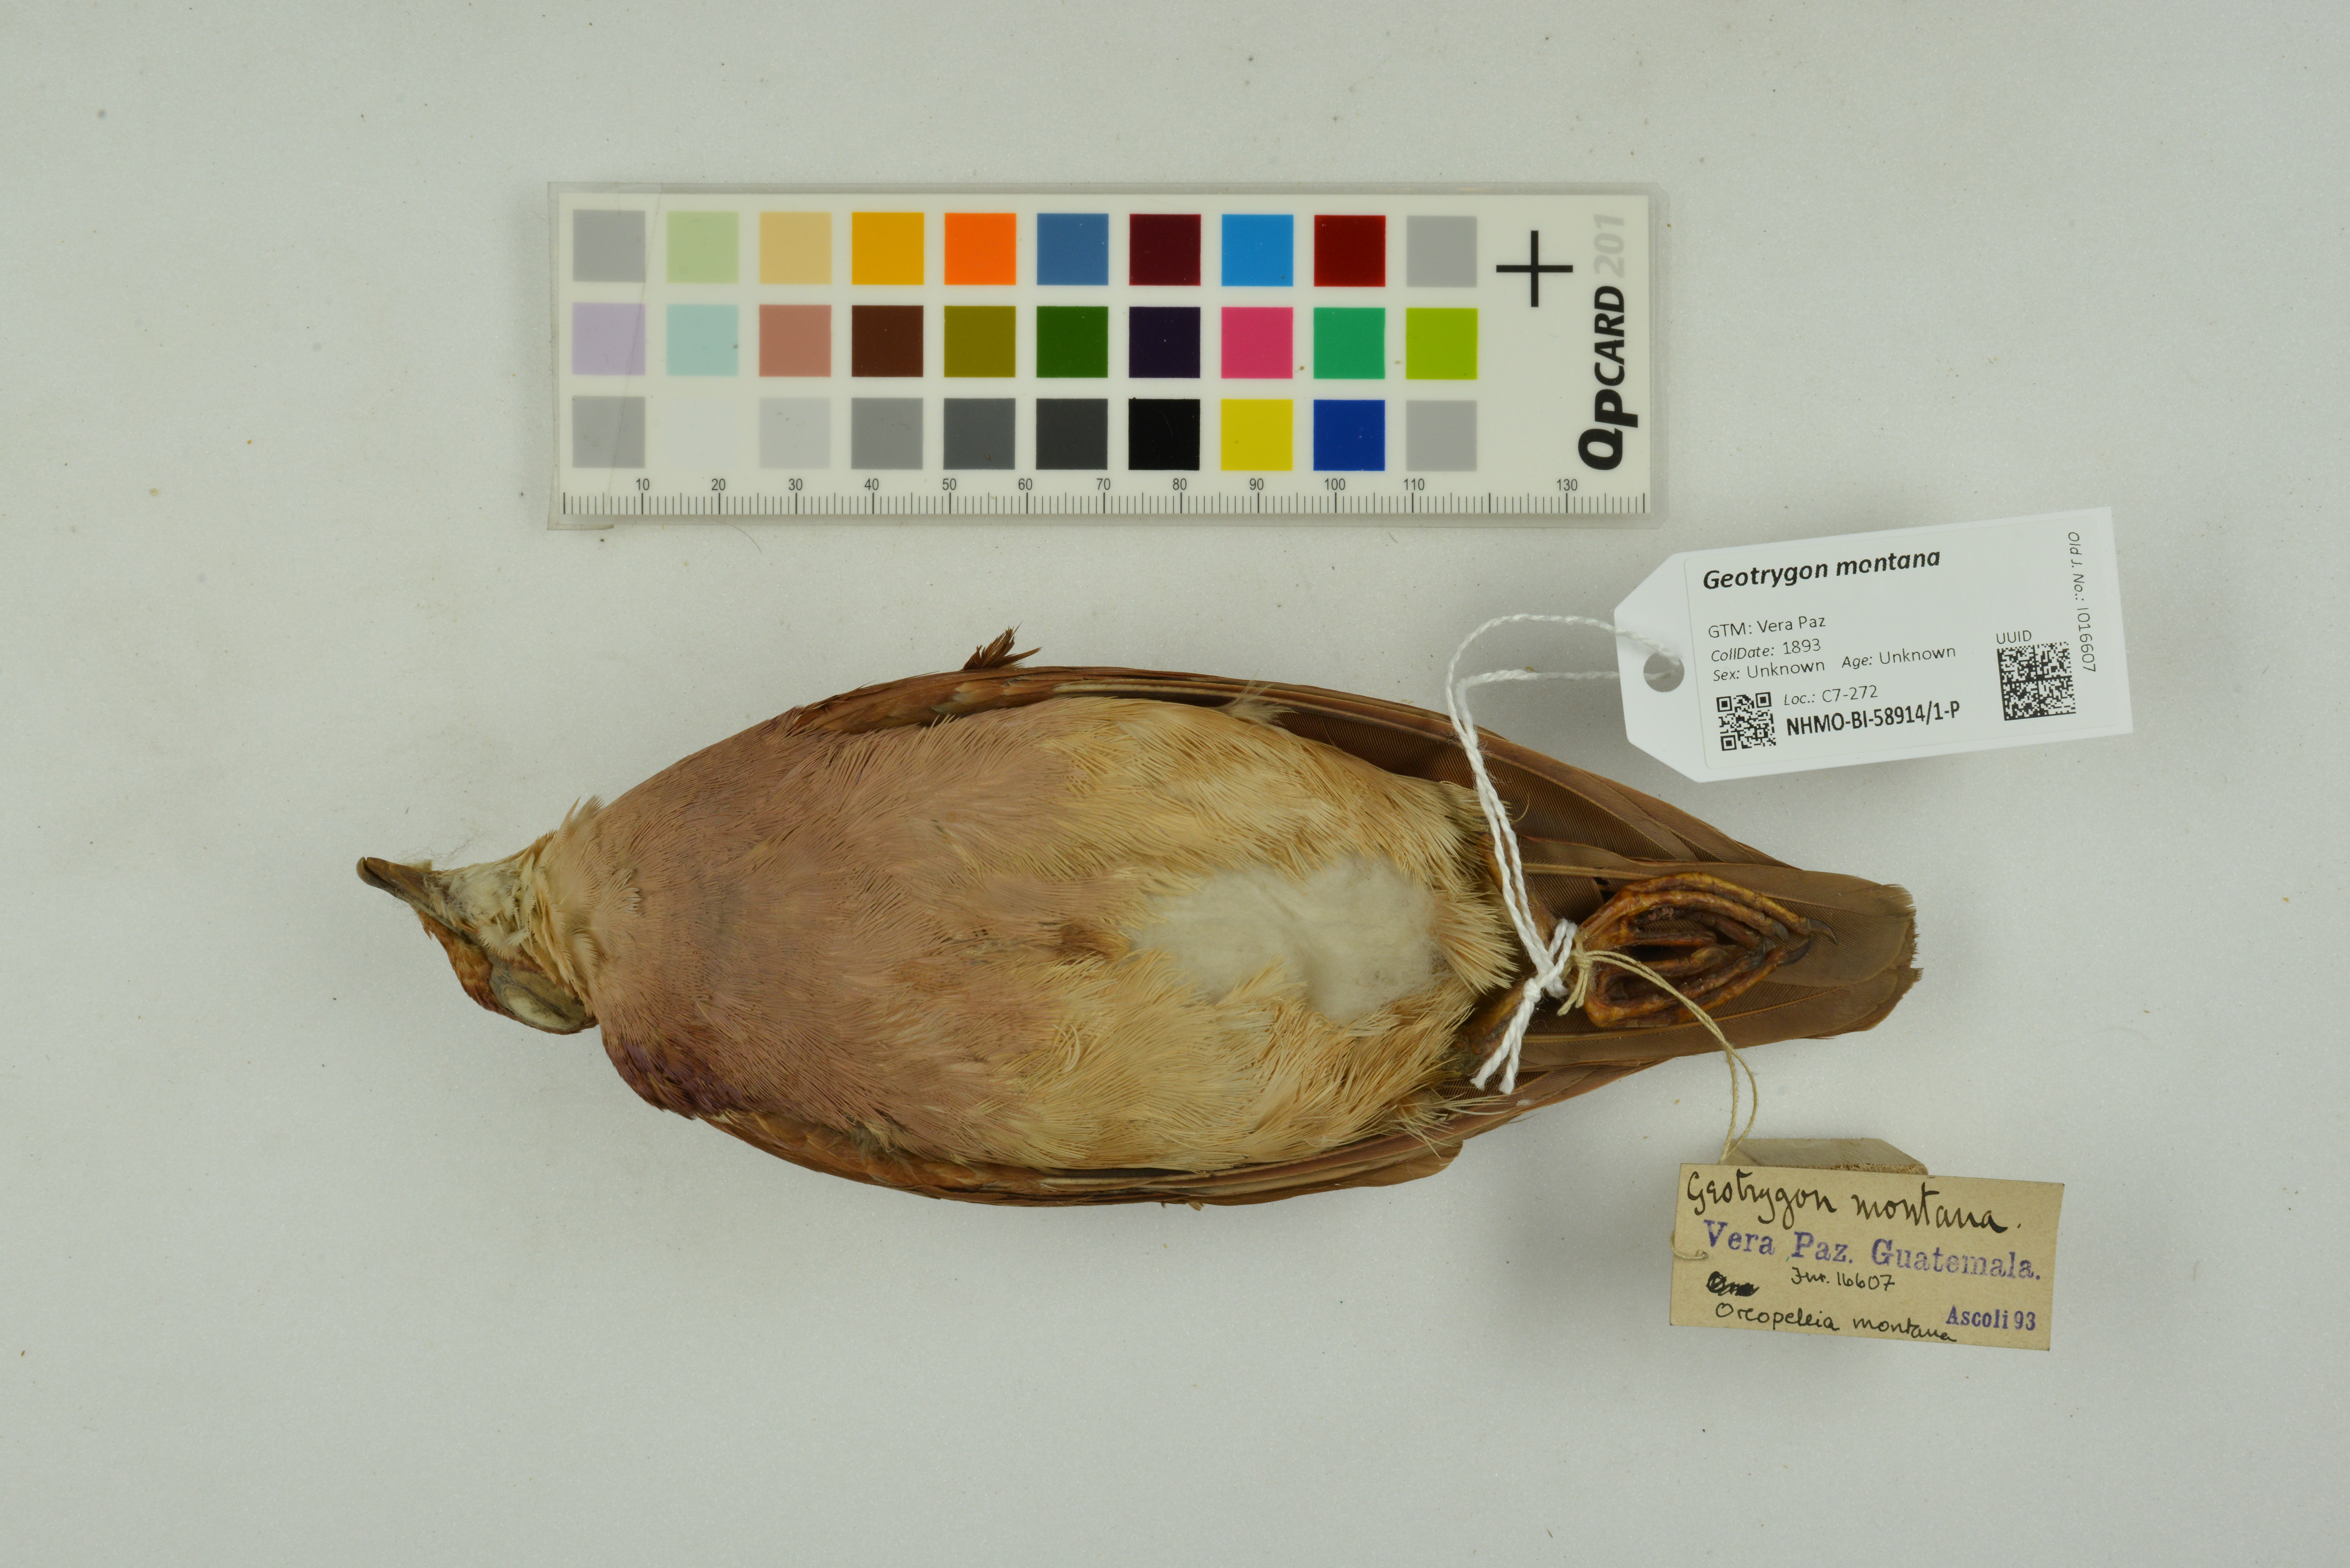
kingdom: Animalia
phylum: Chordata
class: Aves
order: Columbiformes
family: Columbidae
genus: Geotrygon
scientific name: Geotrygon montana
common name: Ruddy quail-dove
